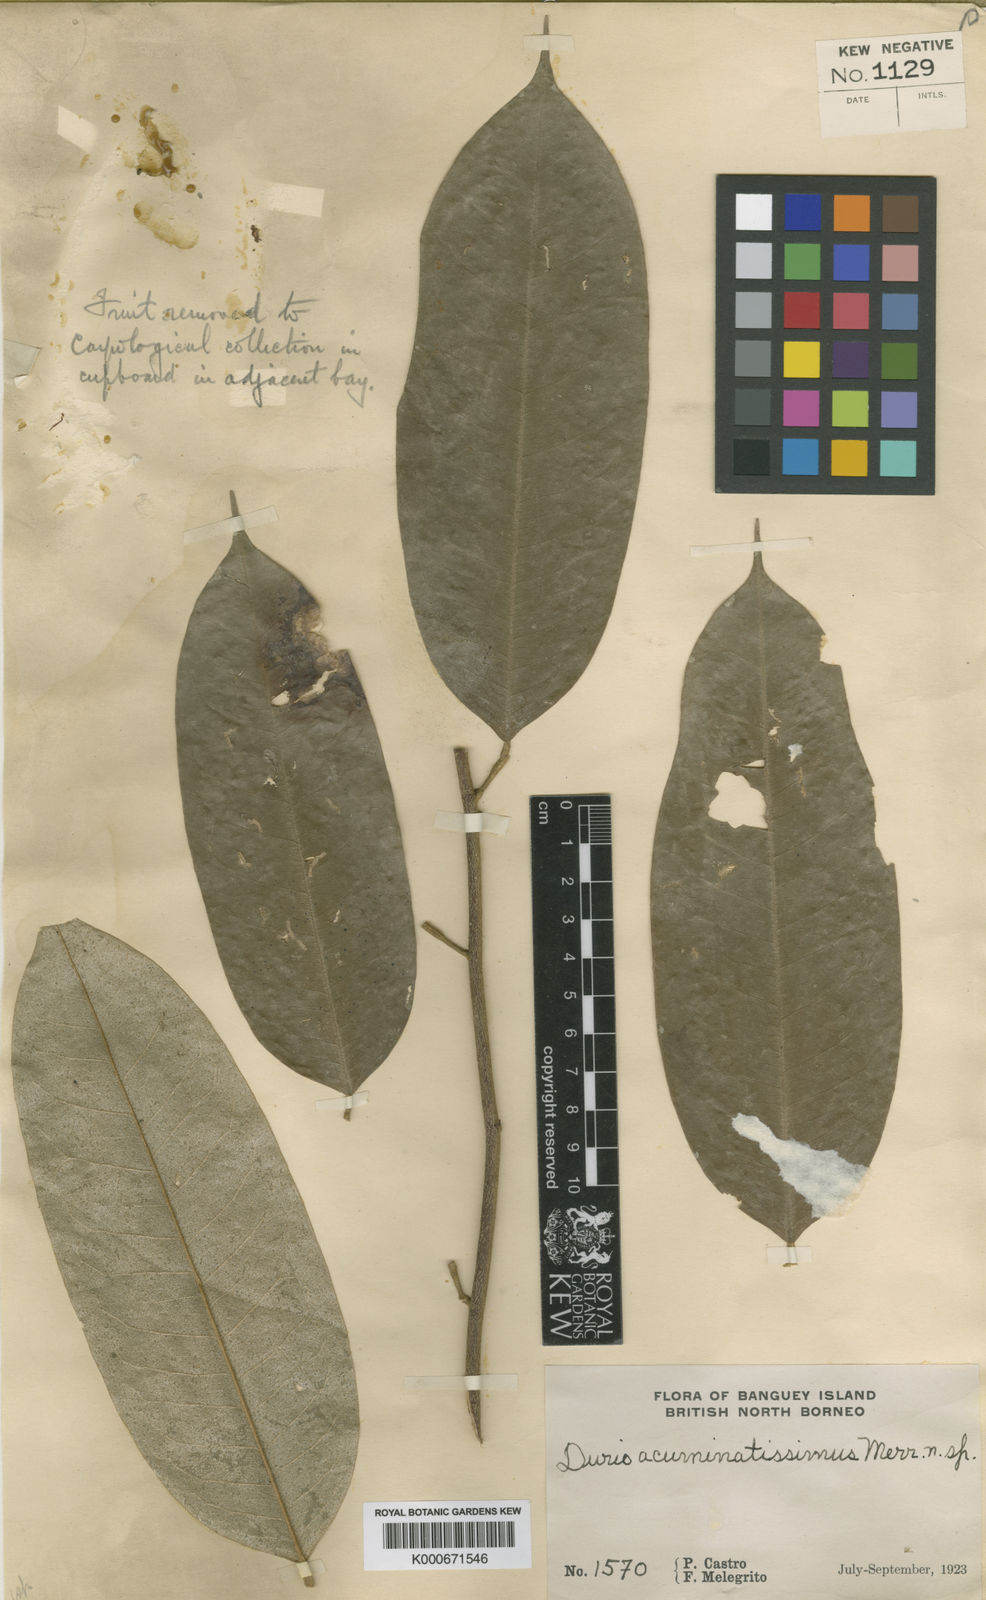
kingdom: Plantae
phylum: Tracheophyta
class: Magnoliopsida
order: Malvales
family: Malvaceae
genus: Durio
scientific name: Durio
